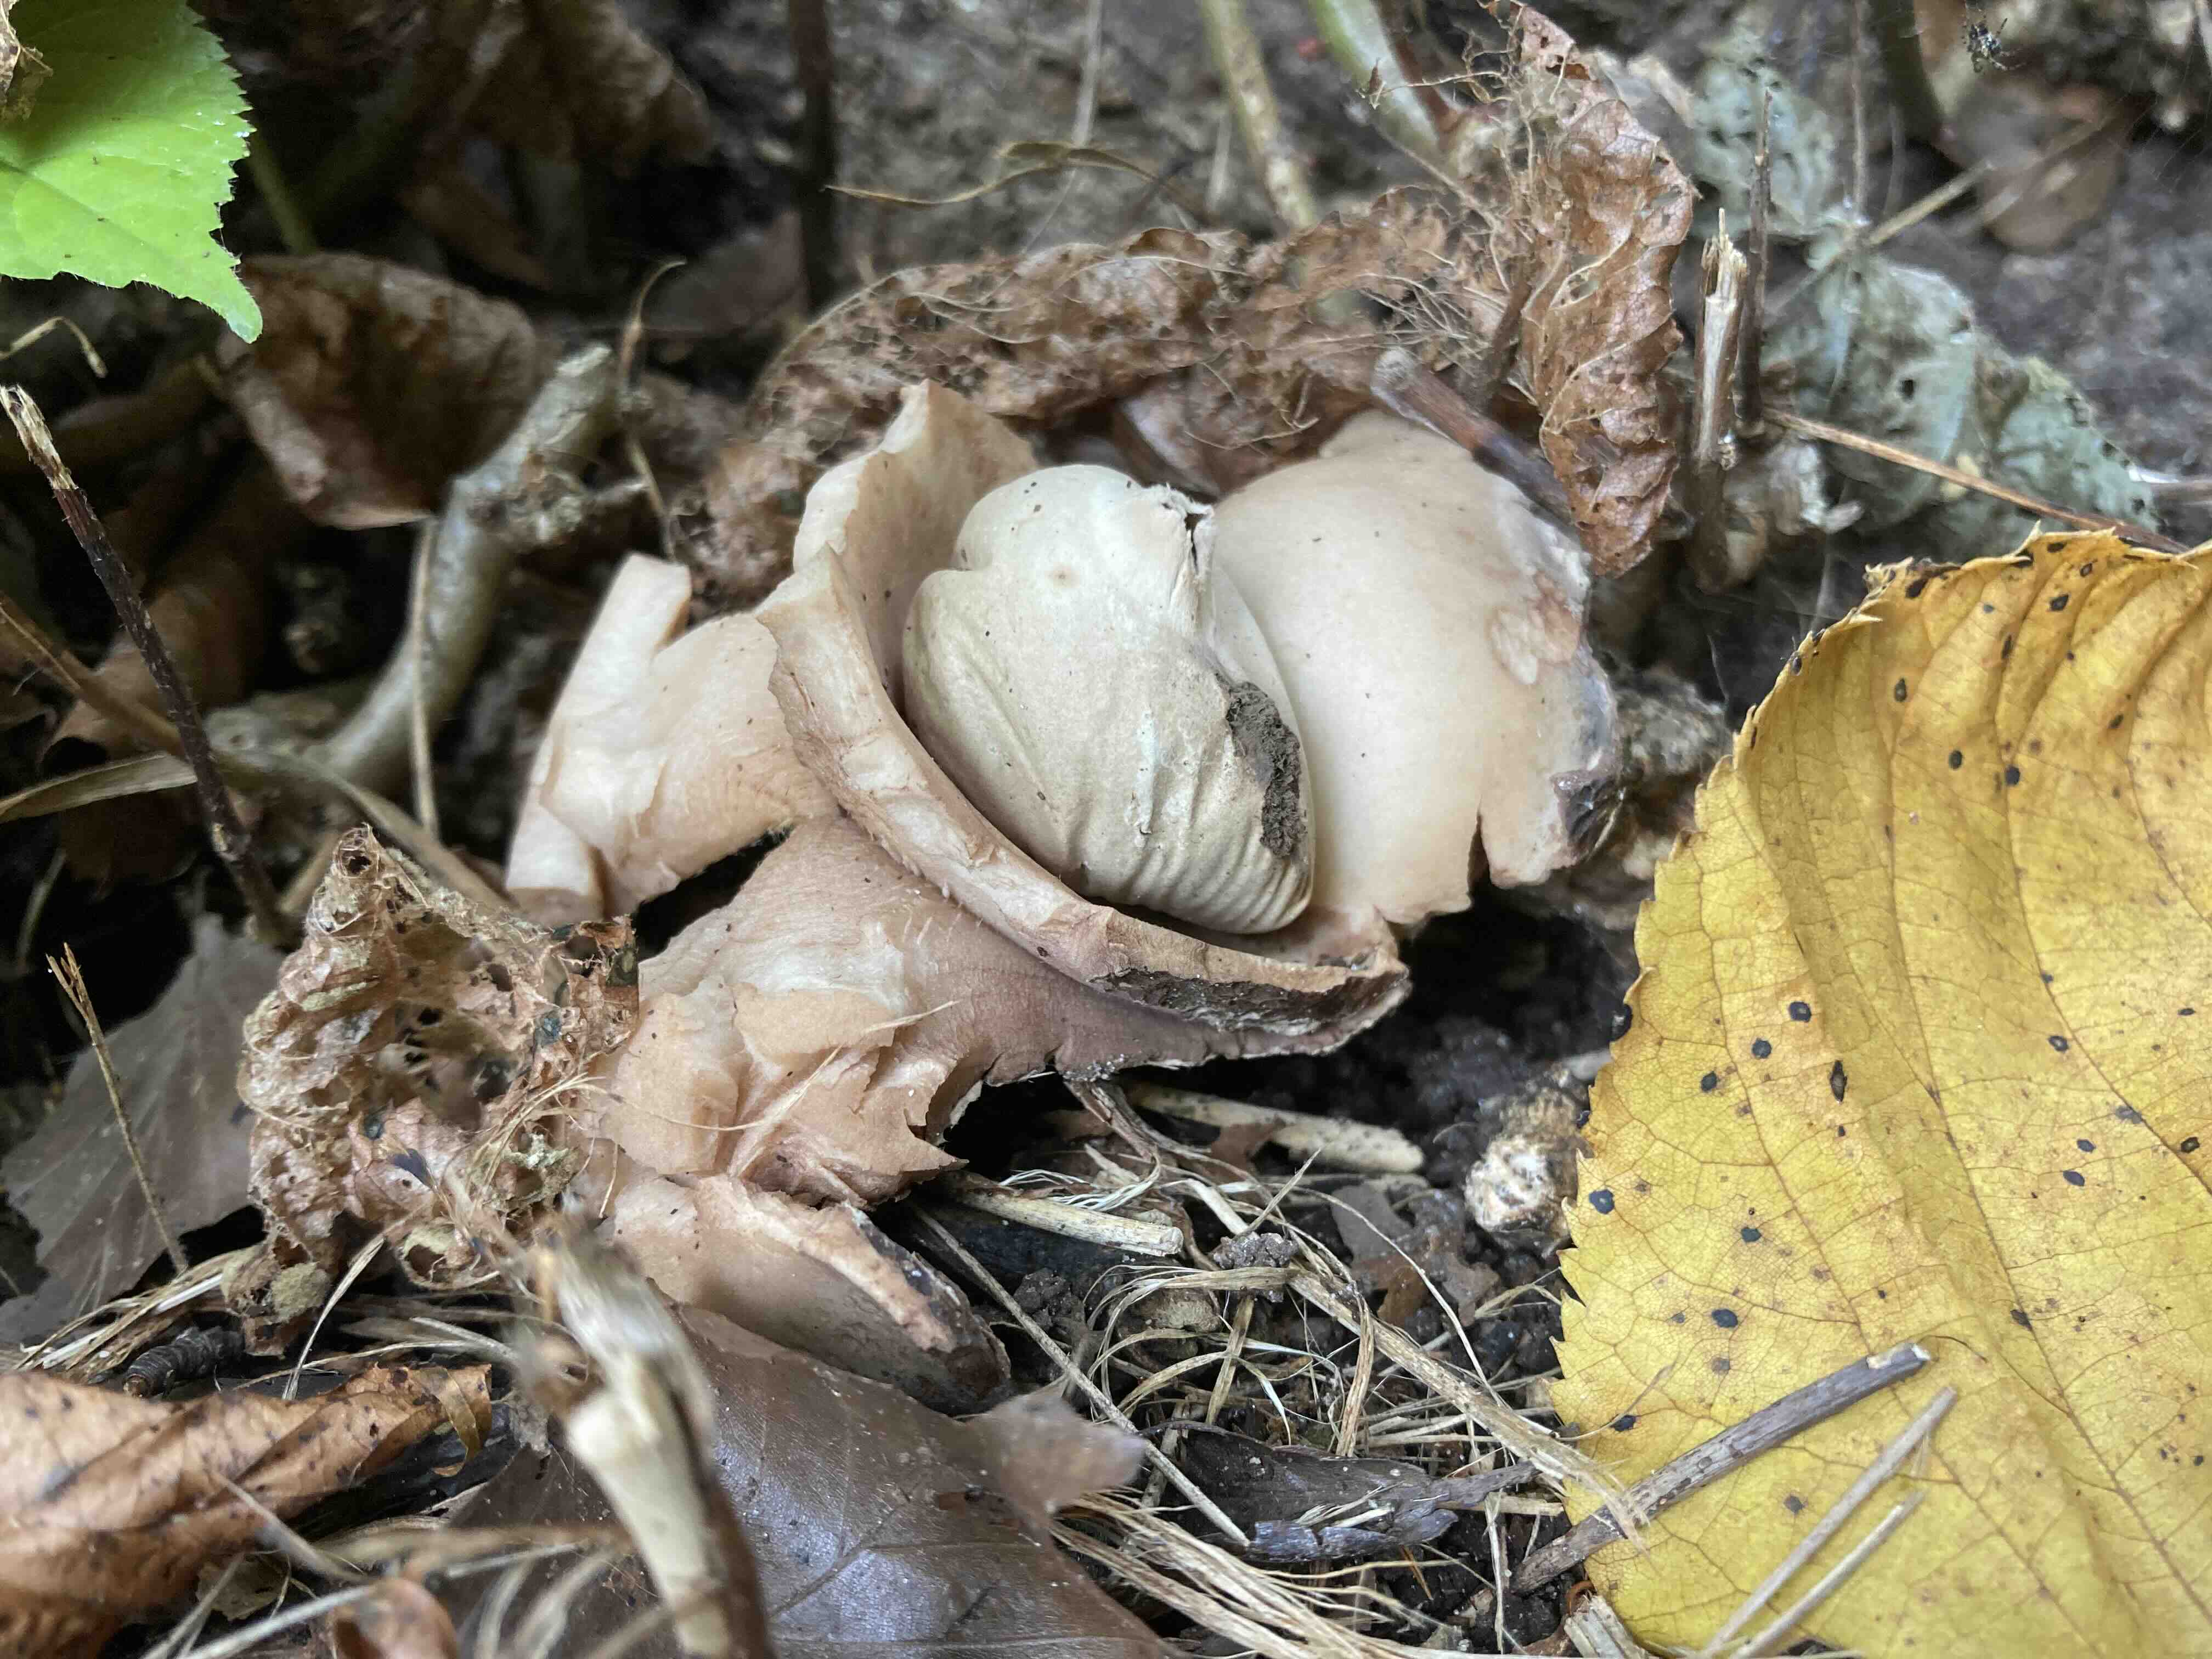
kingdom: Fungi
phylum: Basidiomycota
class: Agaricomycetes
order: Geastrales
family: Geastraceae
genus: Geastrum
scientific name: Geastrum michelianum
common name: kødet stjernebold
